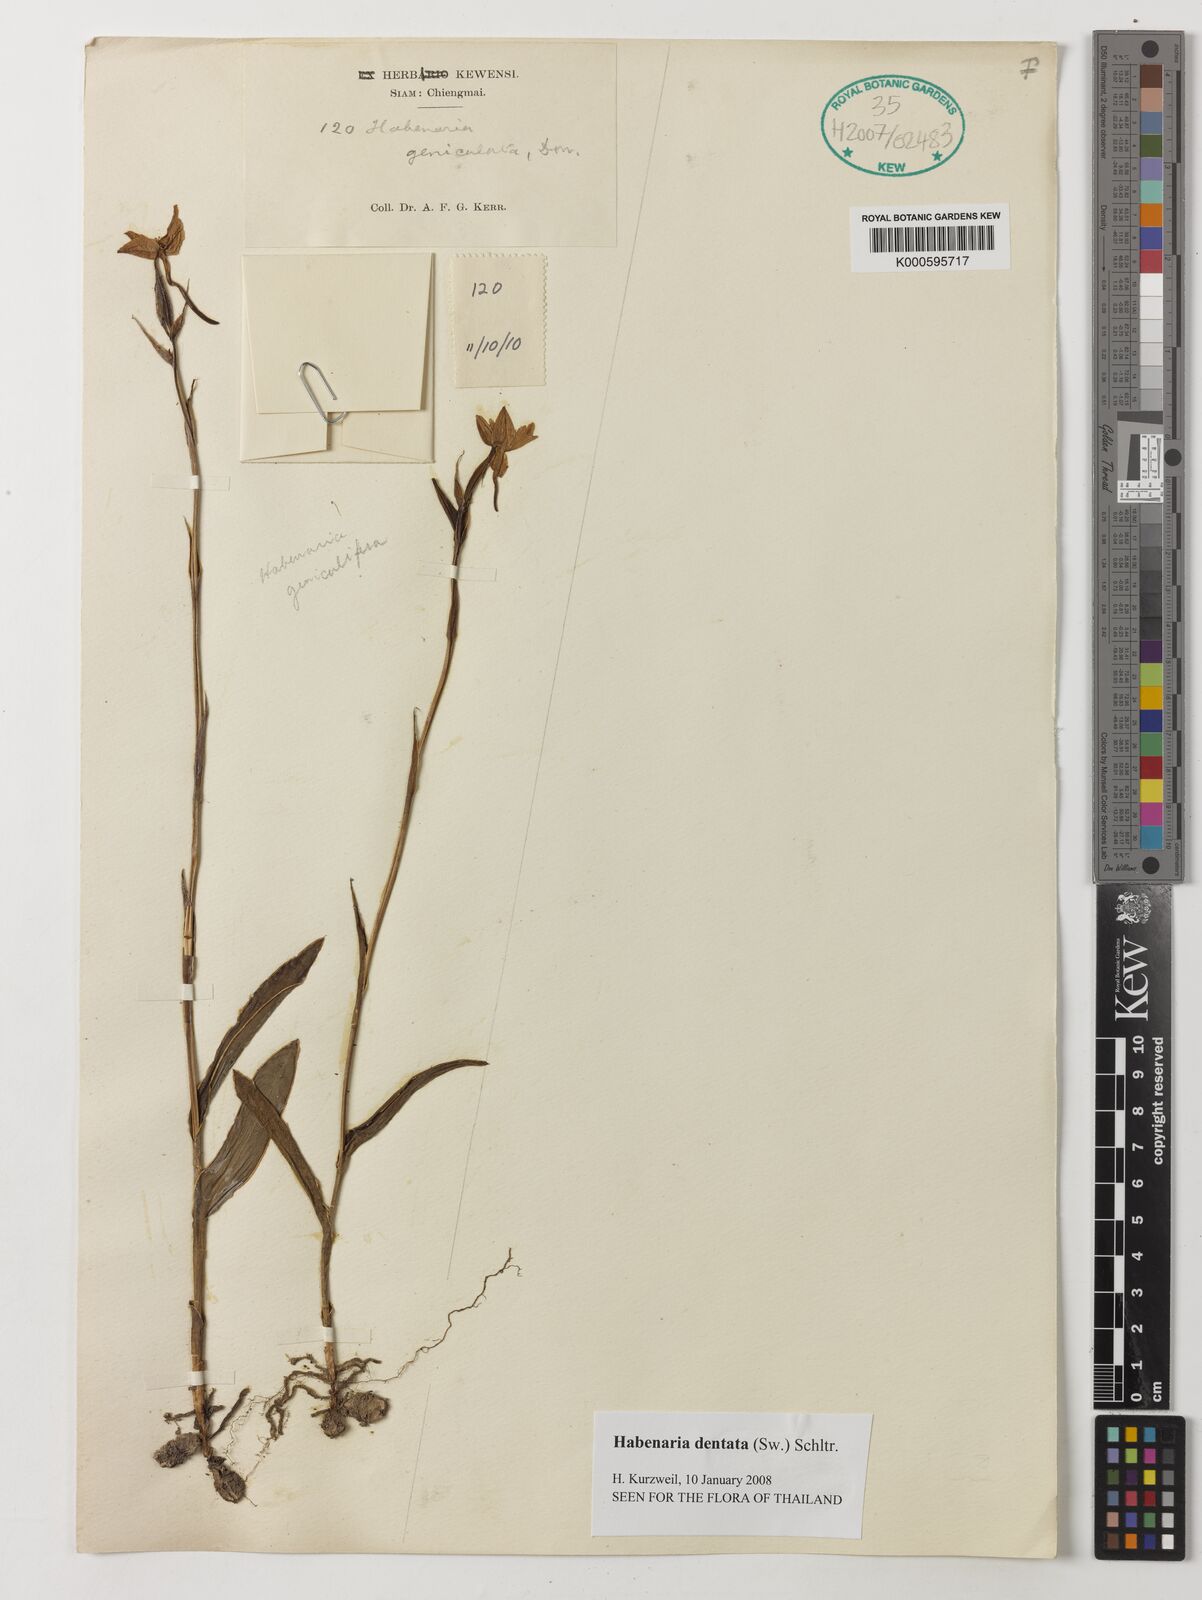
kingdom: Plantae
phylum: Tracheophyta
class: Liliopsida
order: Asparagales
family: Orchidaceae
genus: Habenaria
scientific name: Habenaria dentata
